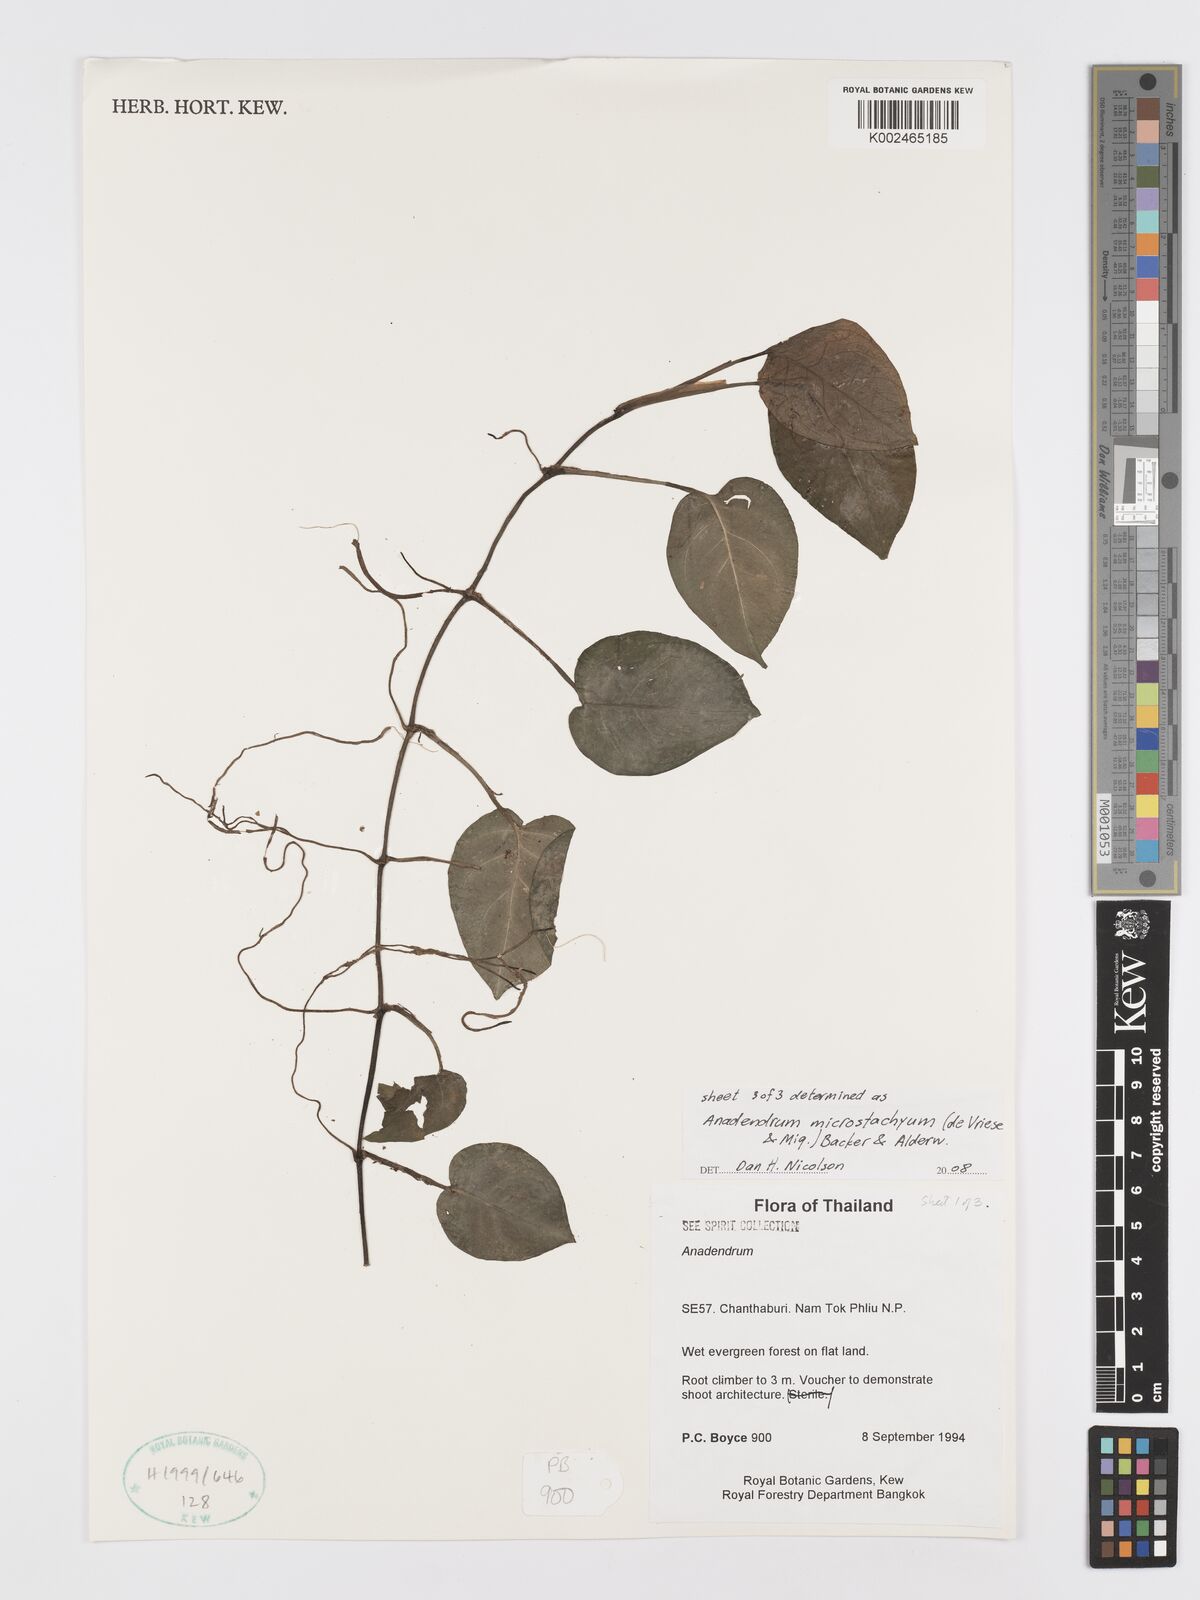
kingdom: Plantae
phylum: Tracheophyta
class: Liliopsida
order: Alismatales
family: Araceae
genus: Anadendrum
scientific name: Anadendrum microstachyum
